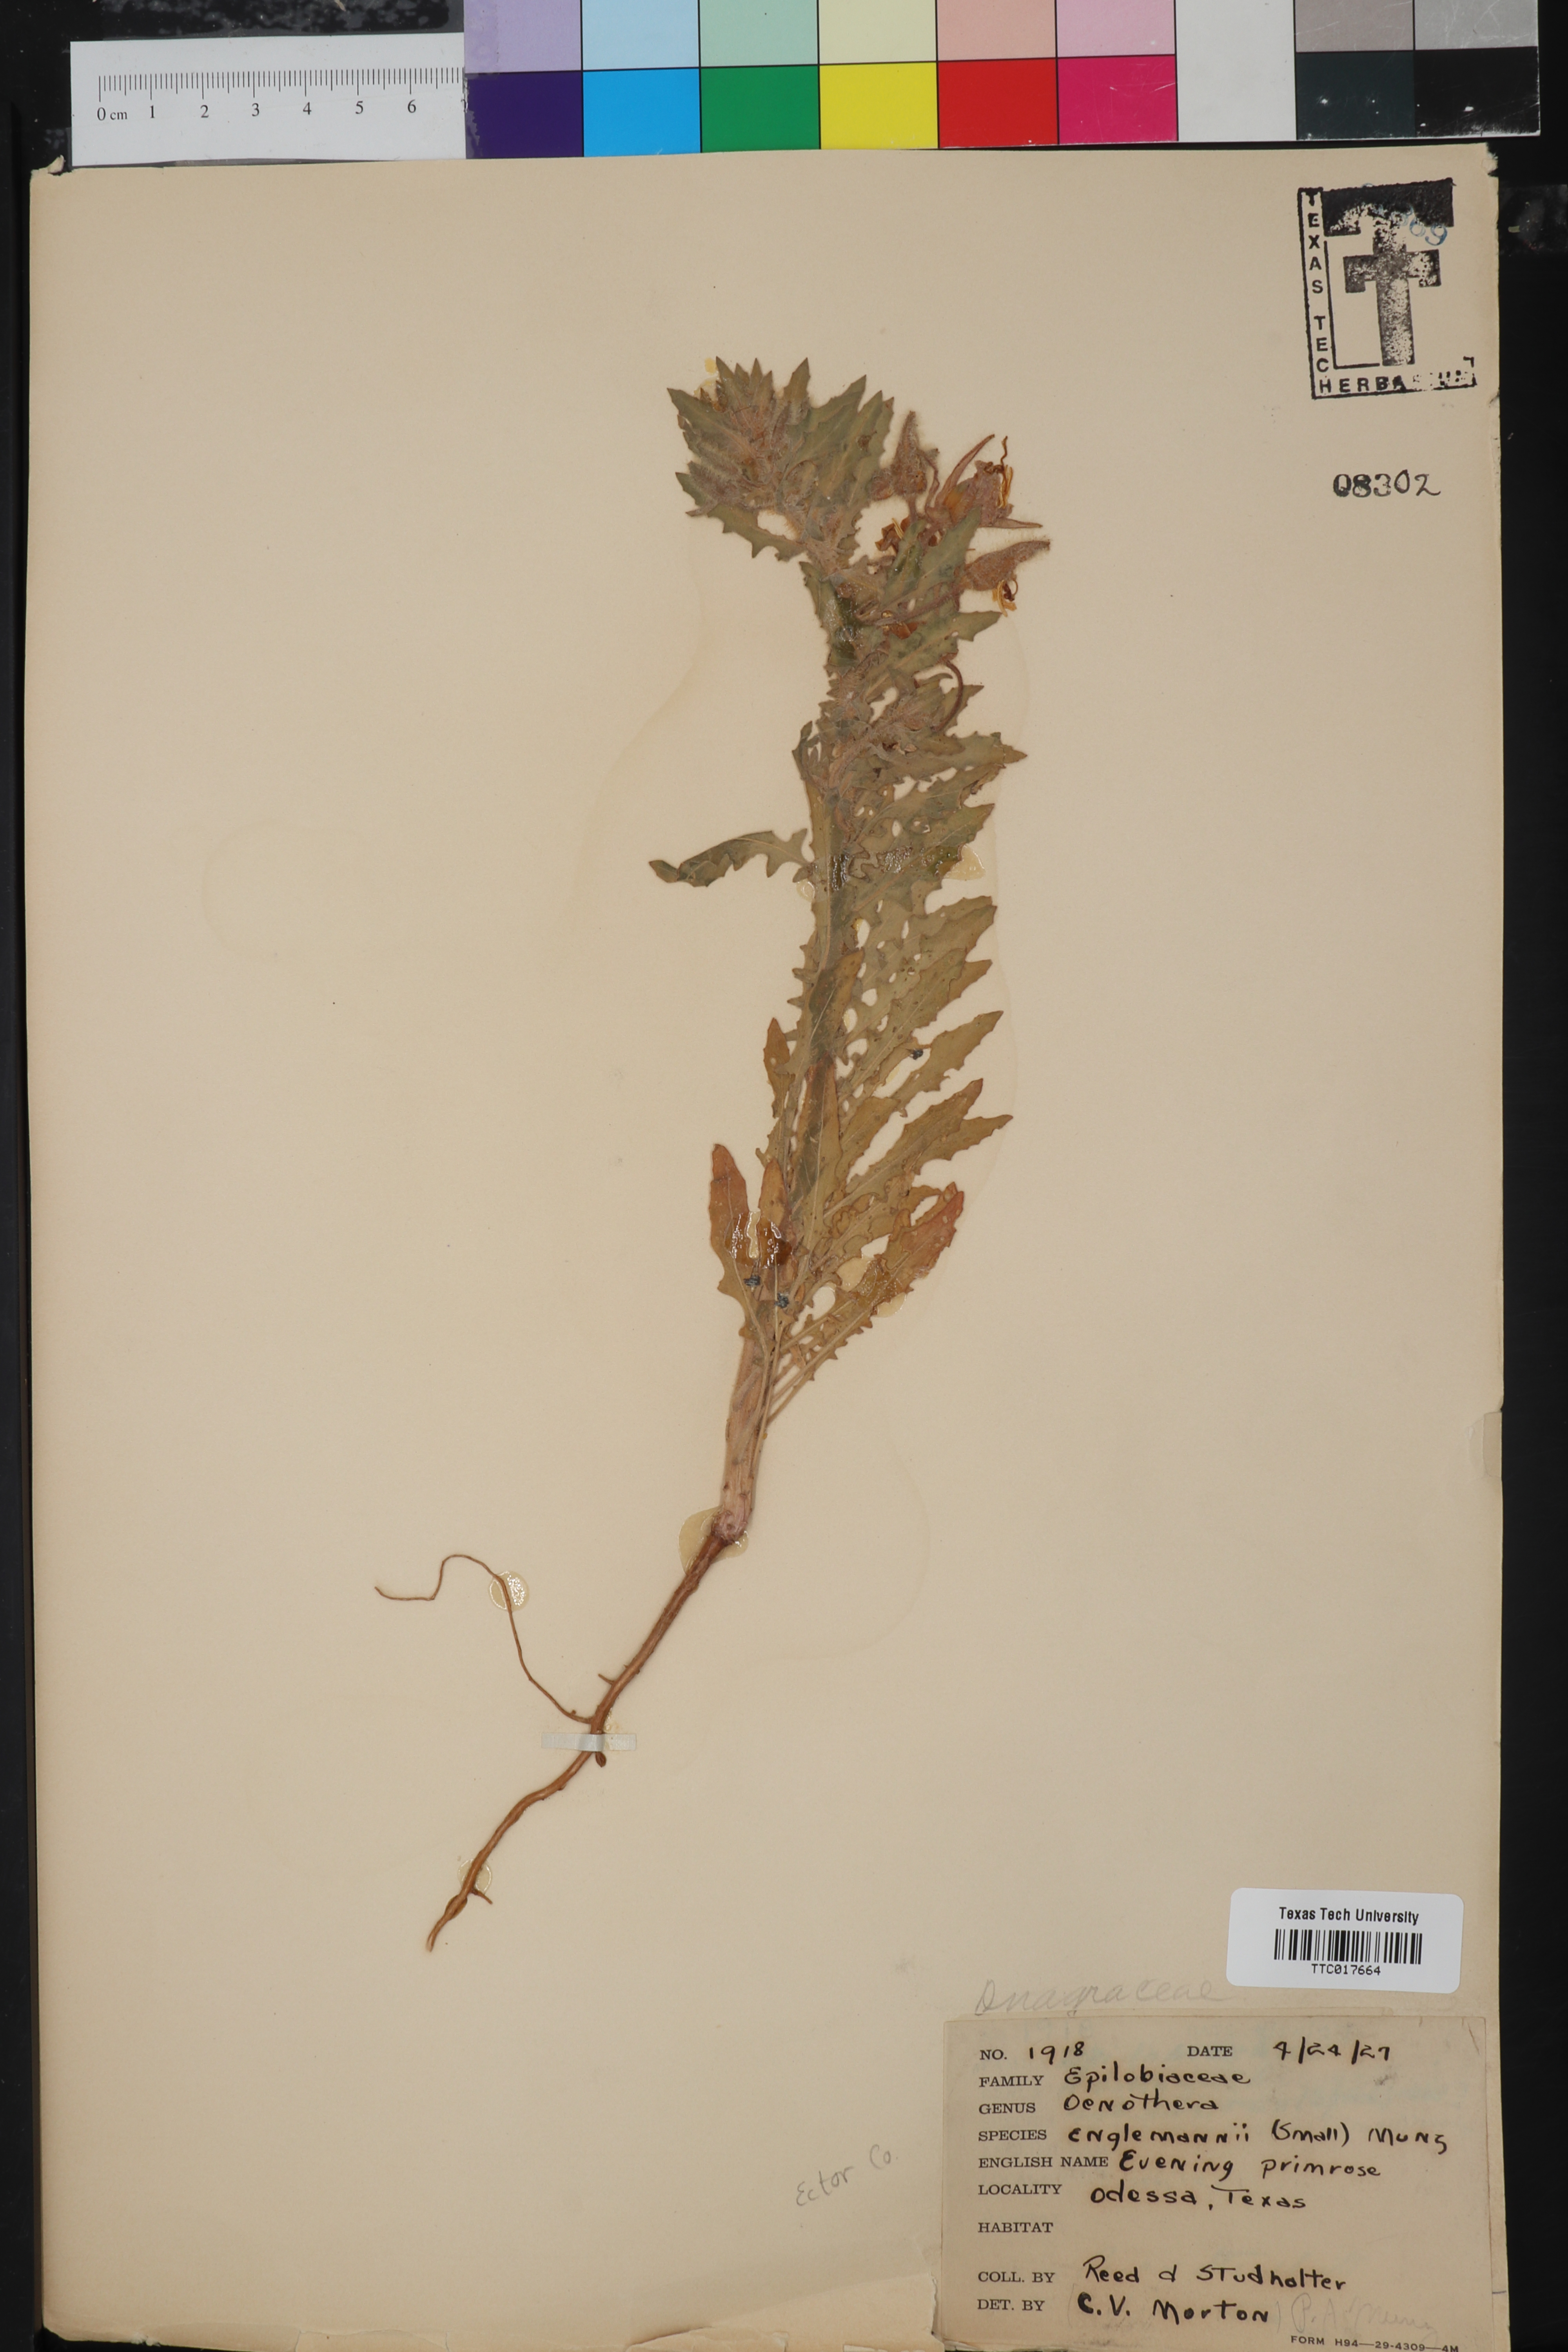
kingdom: Plantae
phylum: Tracheophyta
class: Magnoliopsida
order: Myrtales
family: Onagraceae
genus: Oenothera
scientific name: Oenothera engelmannii
